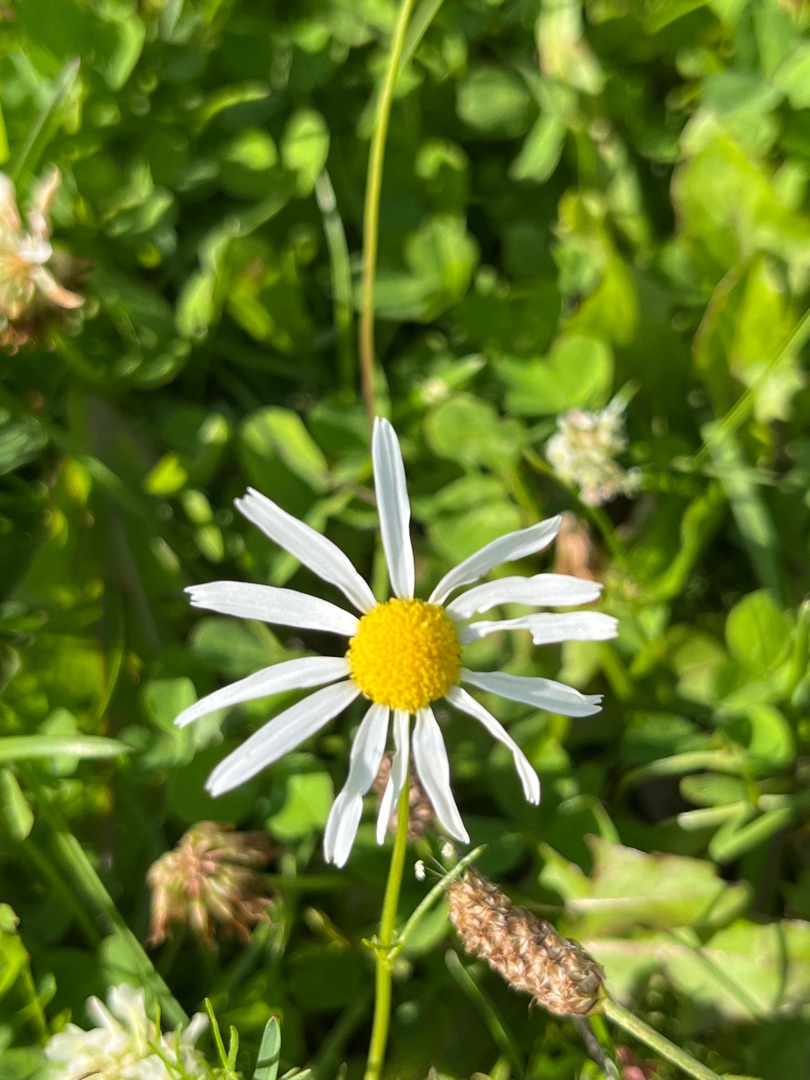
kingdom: Plantae
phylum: Tracheophyta
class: Magnoliopsida
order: Asterales
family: Asteraceae
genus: Tripleurospermum
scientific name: Tripleurospermum inodorum
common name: Lugtløs kamille
